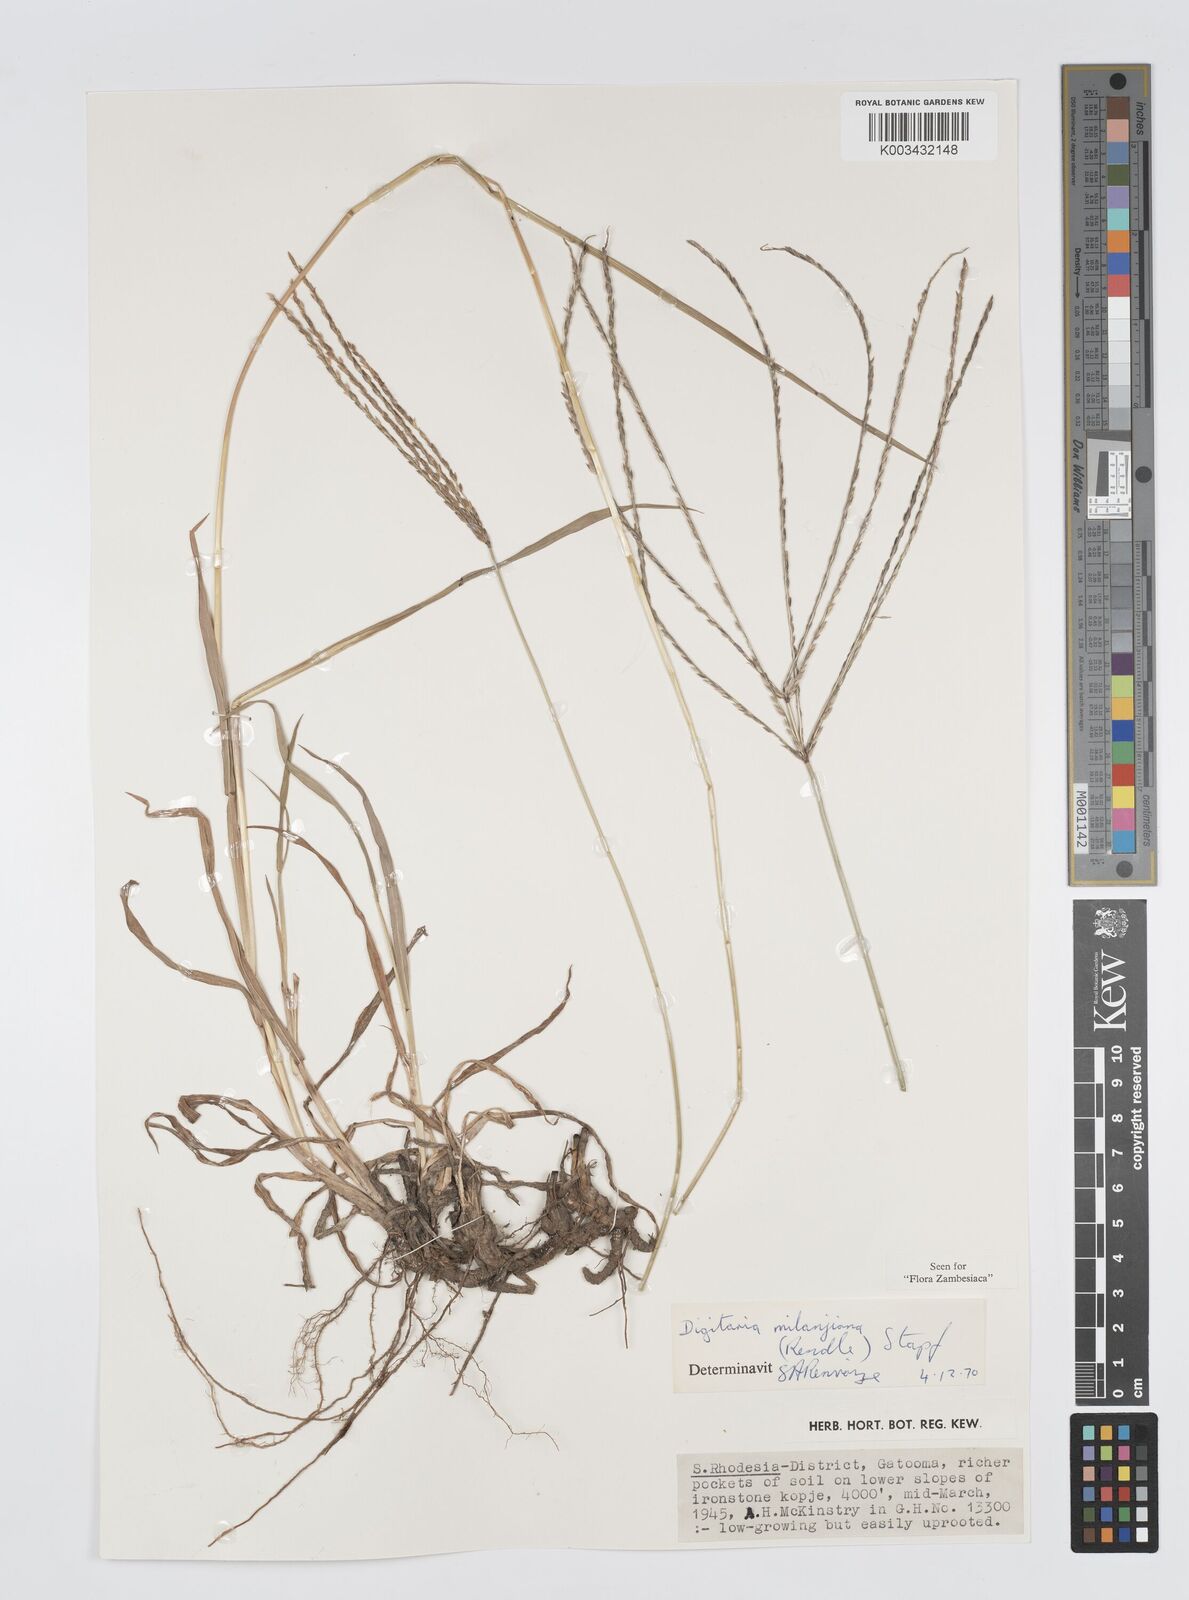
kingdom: Plantae
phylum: Tracheophyta
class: Liliopsida
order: Poales
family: Poaceae
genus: Digitaria
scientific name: Digitaria milanjiana
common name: Madagascar crabgrass
